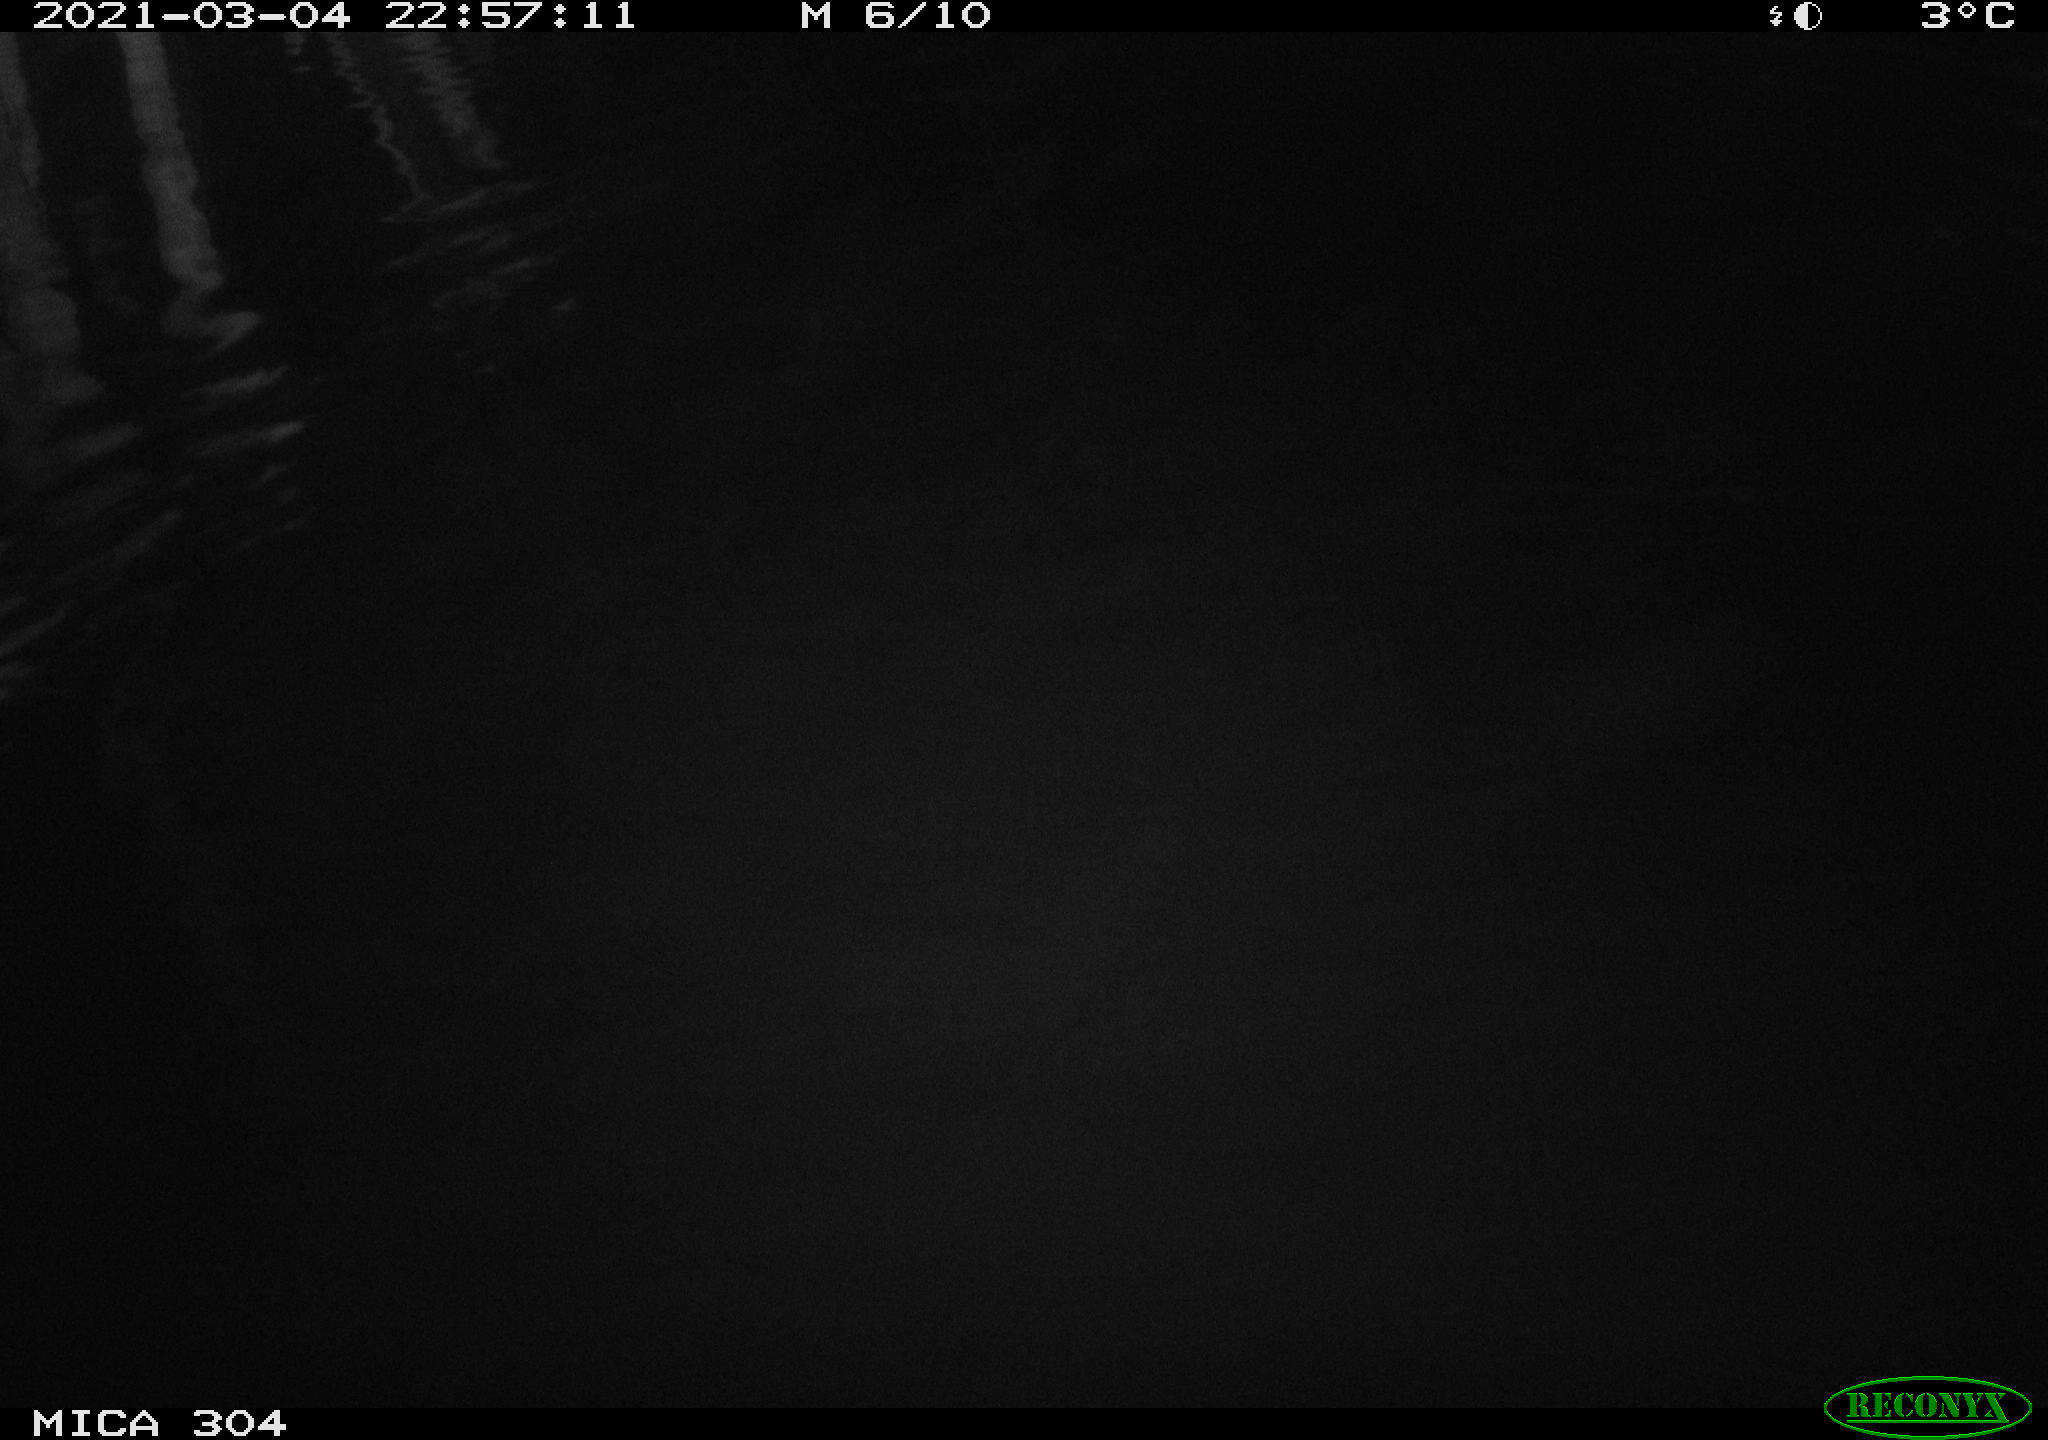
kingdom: Animalia
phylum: Chordata
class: Mammalia
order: Rodentia
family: Cricetidae
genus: Ondatra
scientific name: Ondatra zibethicus
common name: Muskrat
